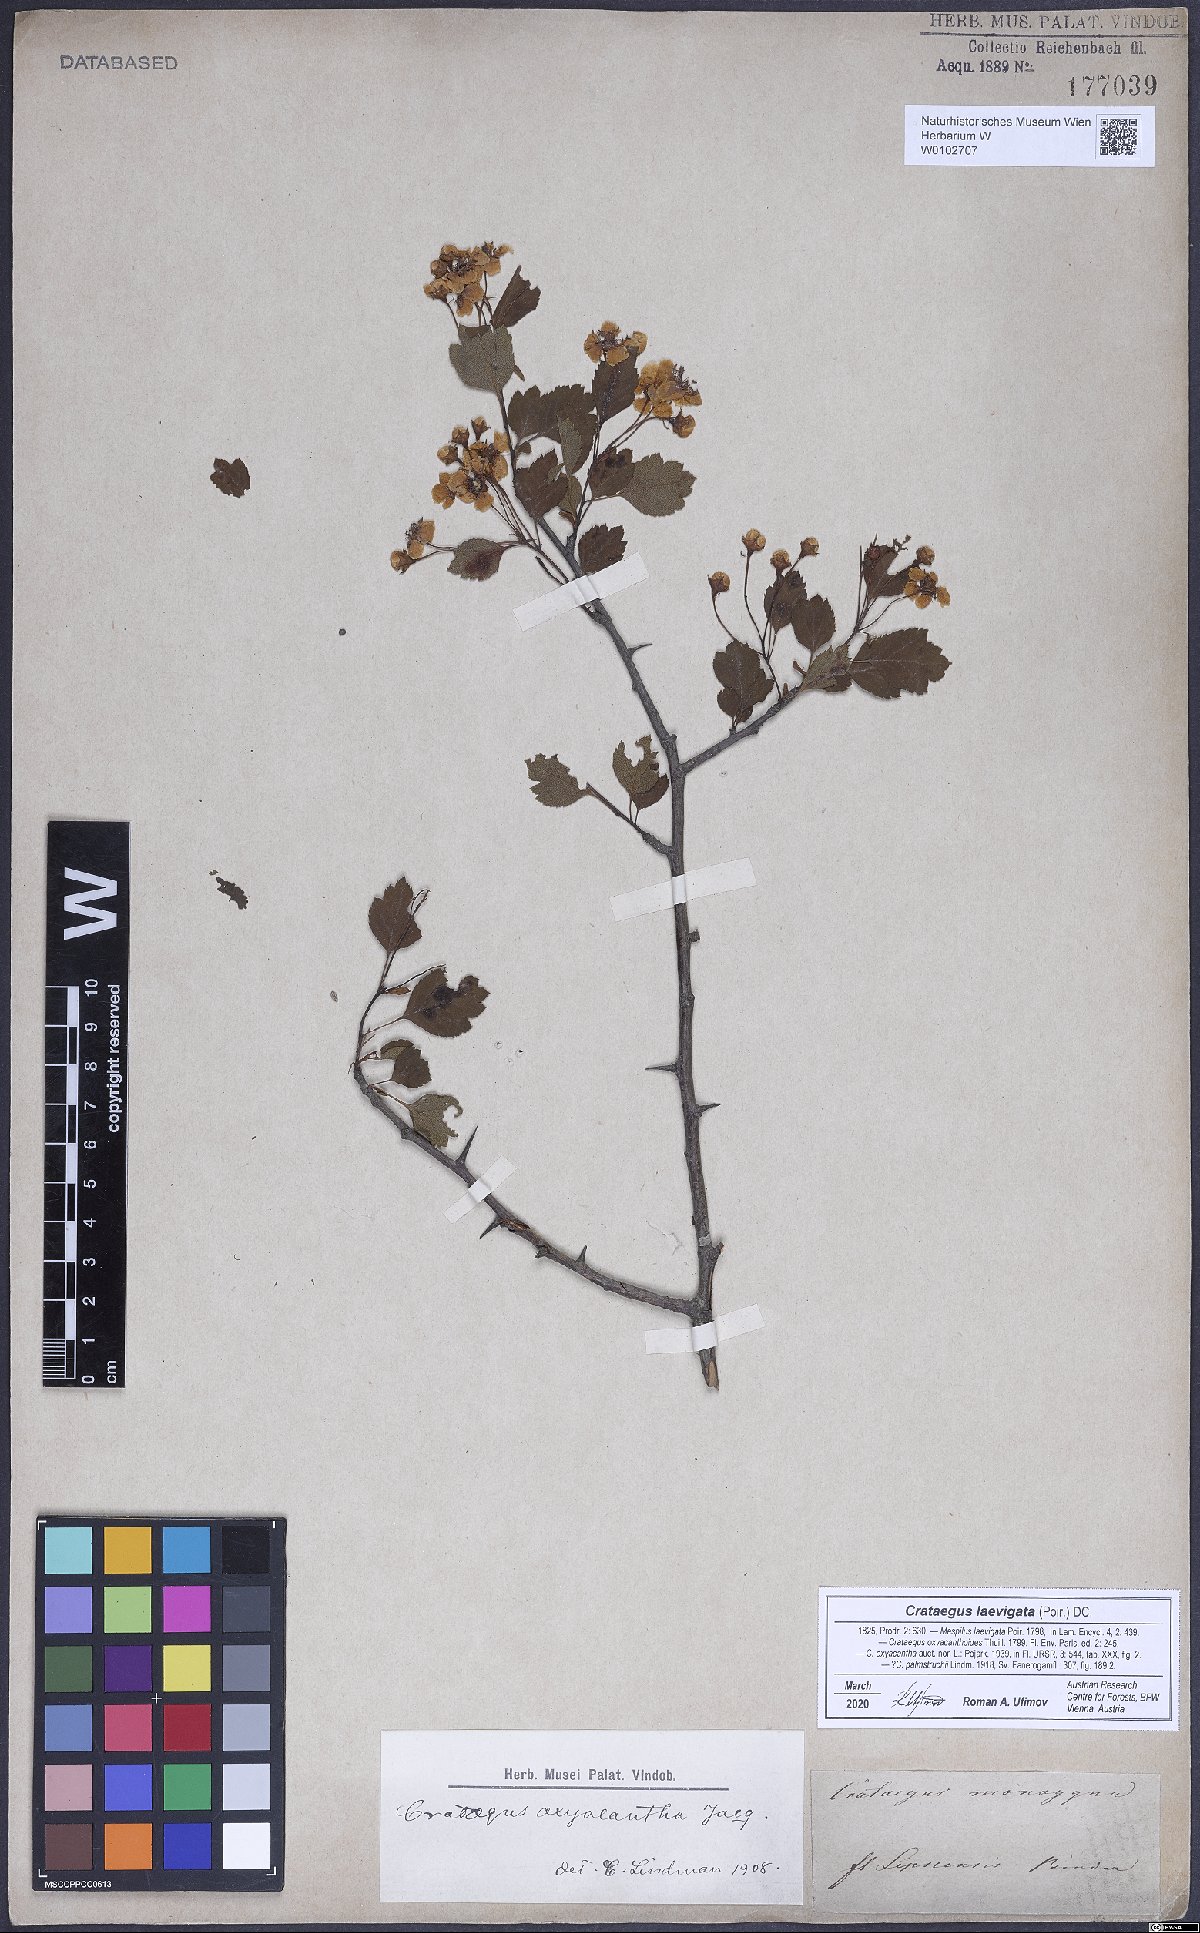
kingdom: Plantae
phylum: Tracheophyta
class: Magnoliopsida
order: Rosales
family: Rosaceae
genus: Crataegus
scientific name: Crataegus laevigata
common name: Midland hawthorn
